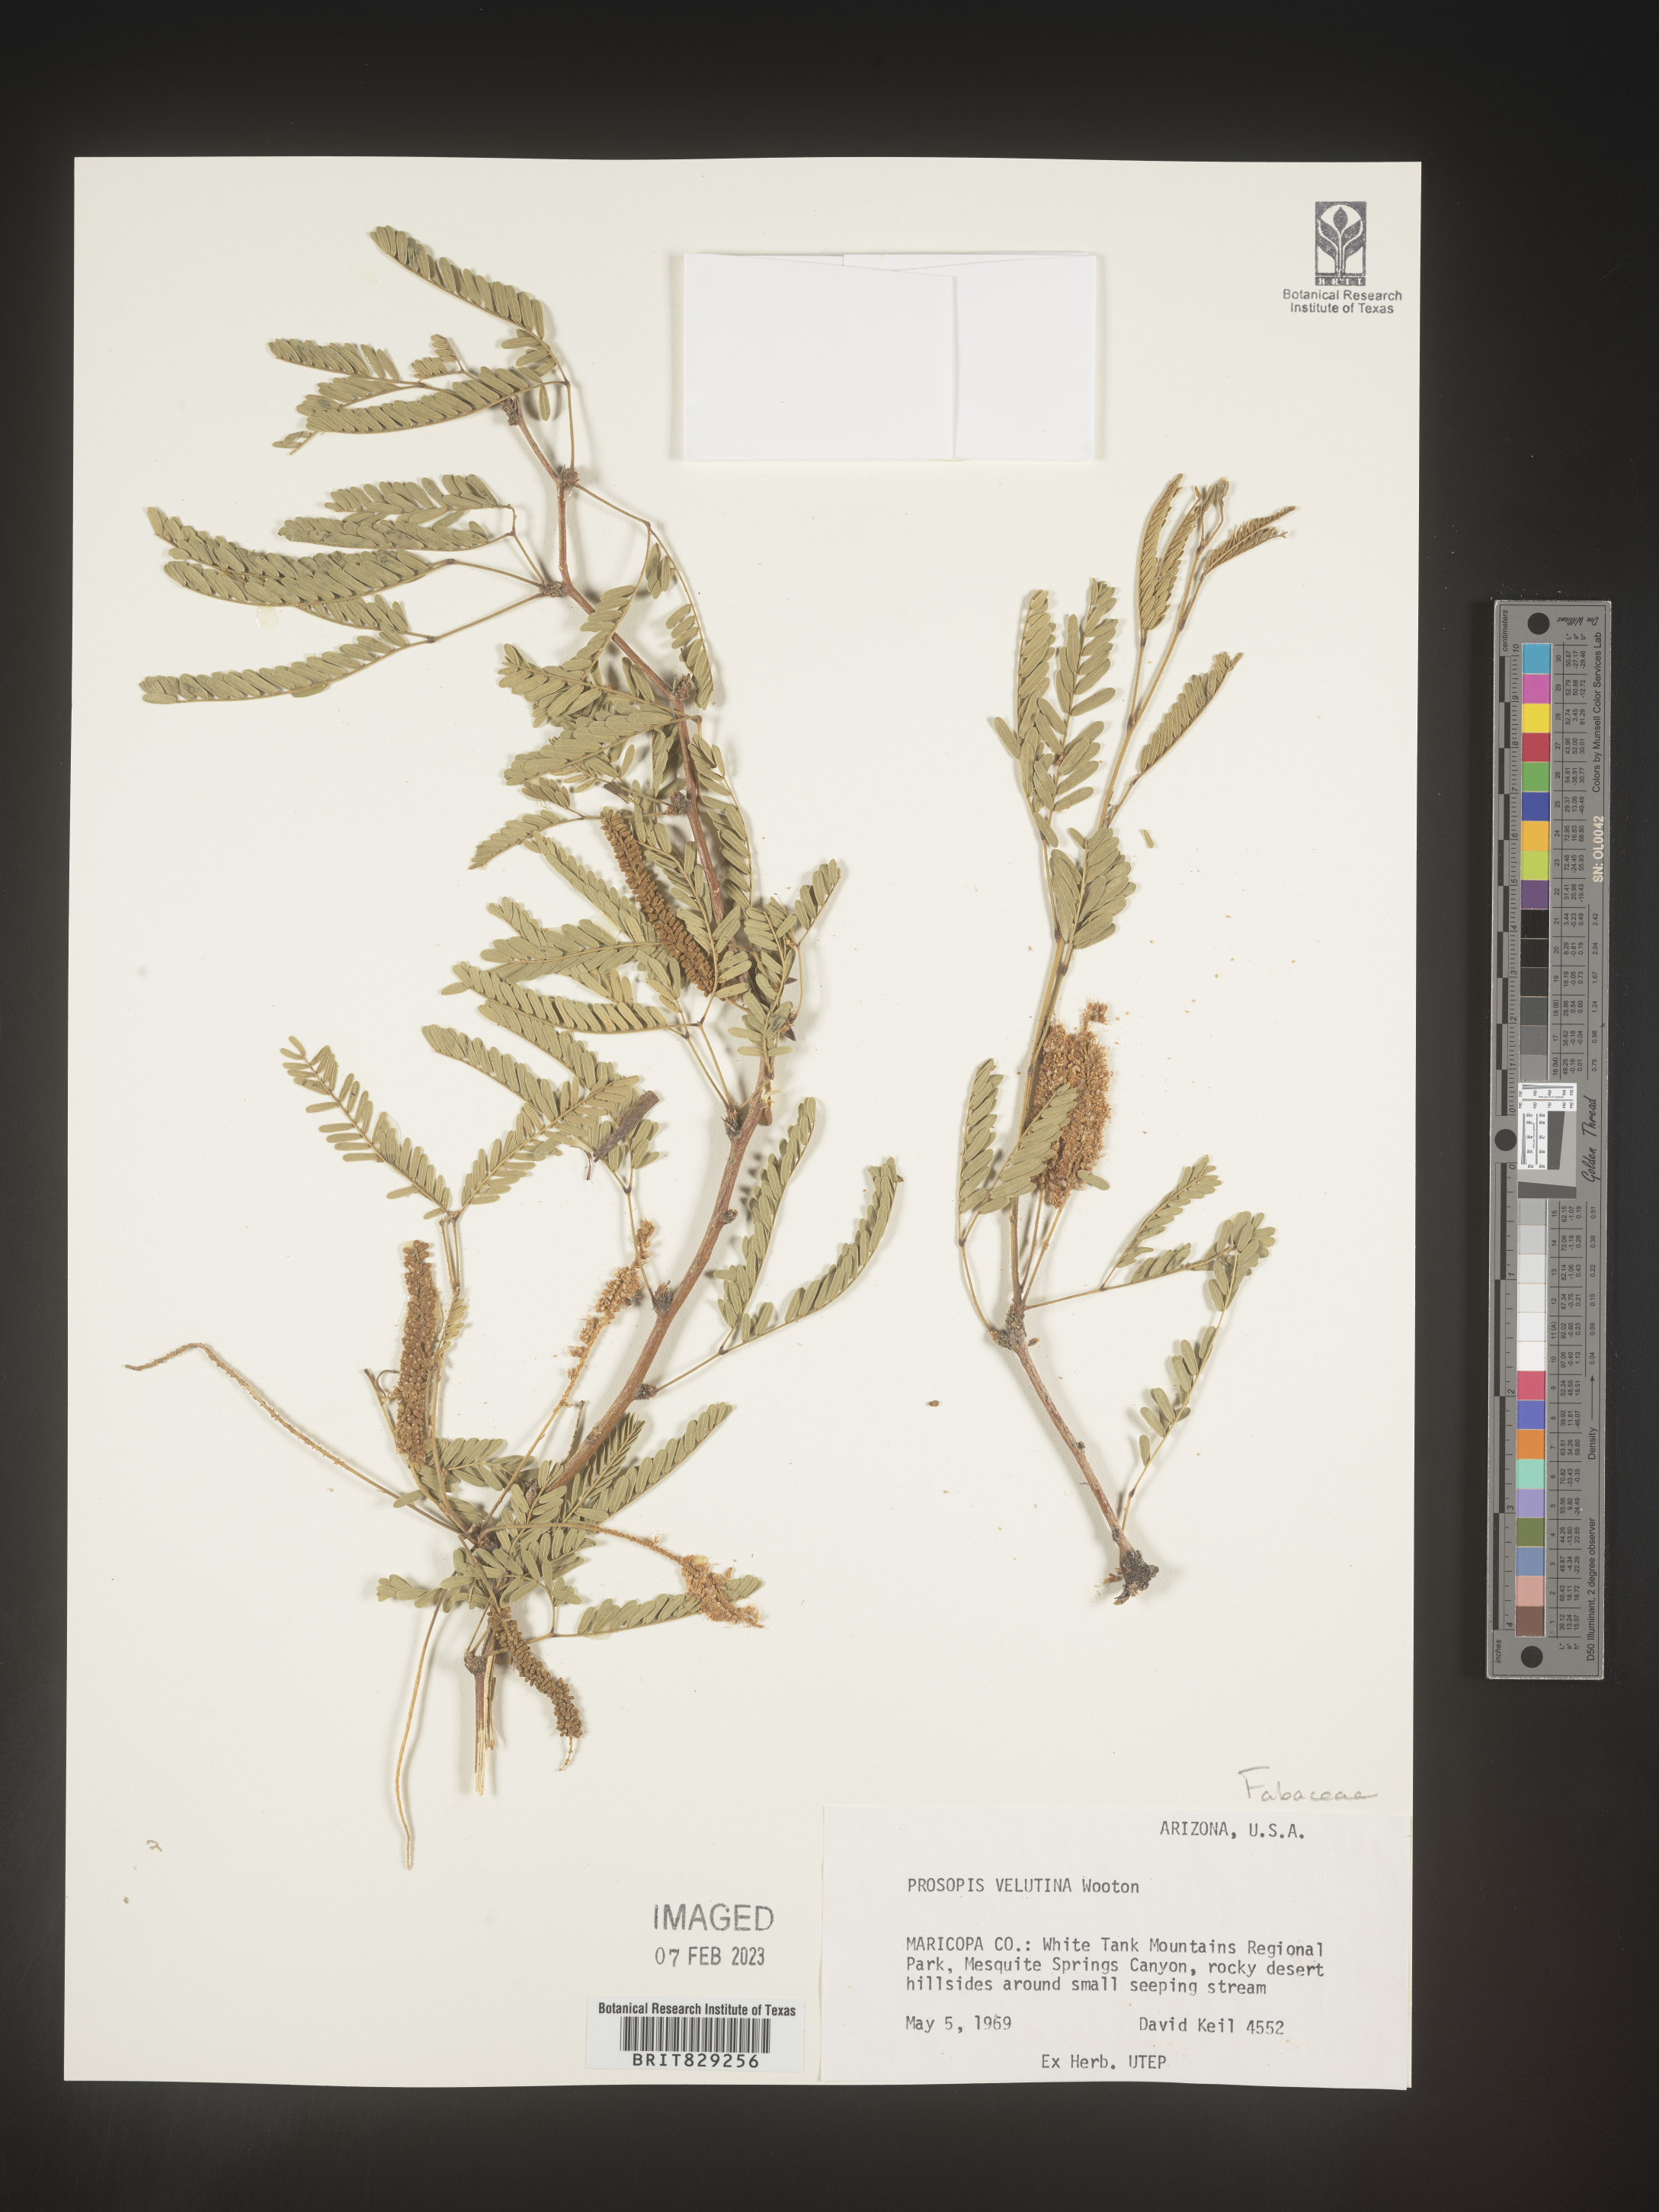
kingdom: Plantae
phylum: Tracheophyta
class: Magnoliopsida
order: Fabales
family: Fabaceae
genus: Prosopis
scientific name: Prosopis
